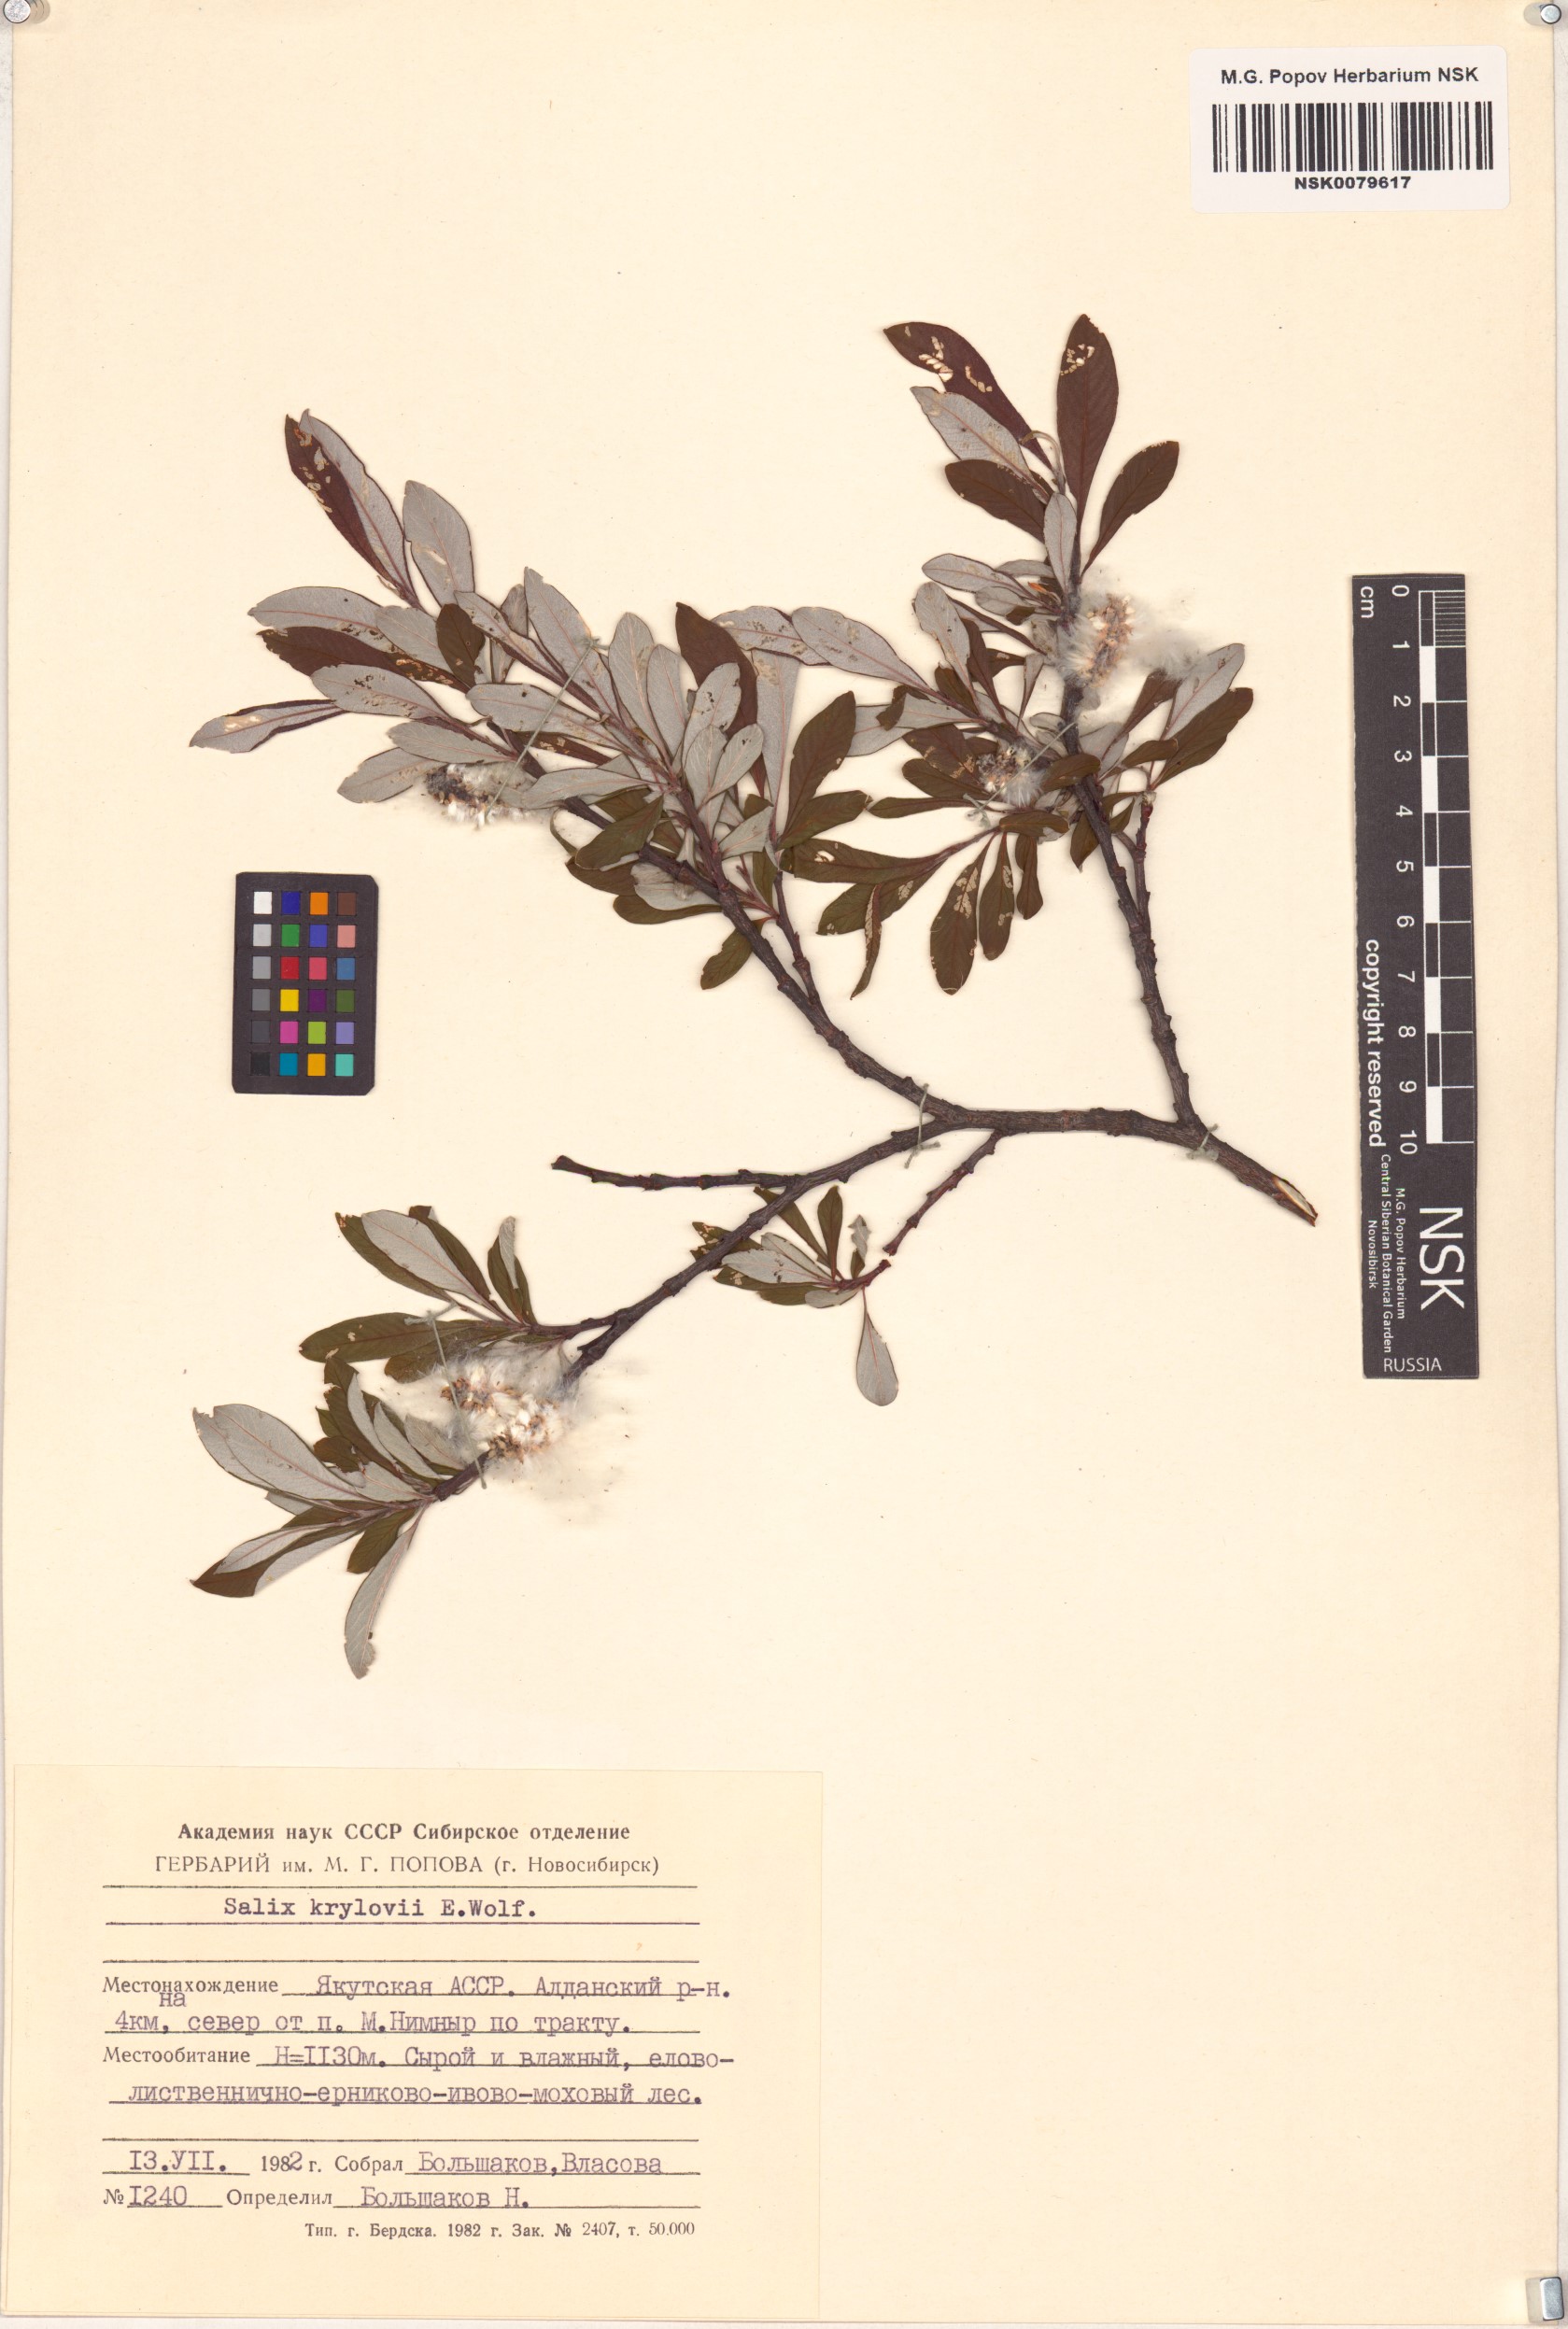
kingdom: Plantae
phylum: Tracheophyta
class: Magnoliopsida
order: Malpighiales
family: Salicaceae
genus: Salix
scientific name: Salix krylovii
